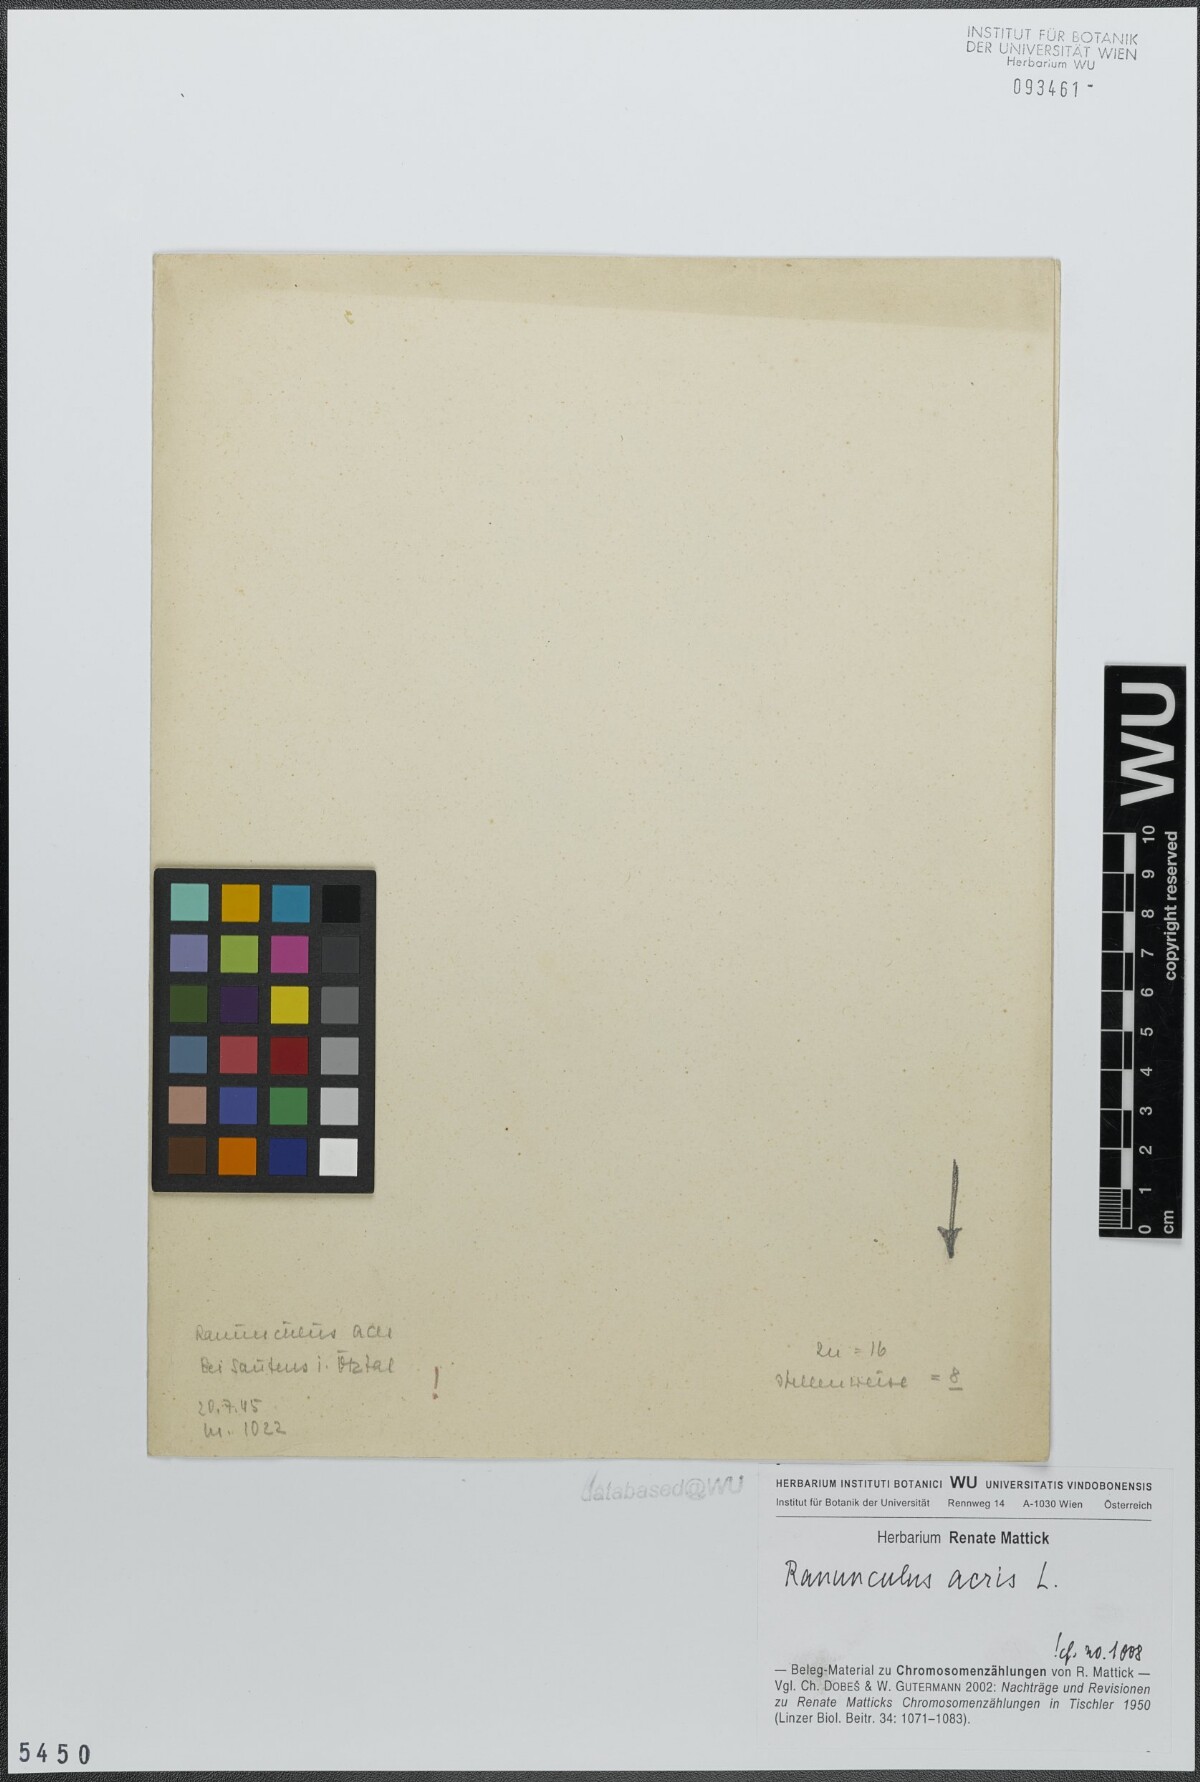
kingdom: Plantae
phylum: Tracheophyta
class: Magnoliopsida
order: Ranunculales
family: Ranunculaceae
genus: Ranunculus
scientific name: Ranunculus acris
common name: Meadow buttercup
